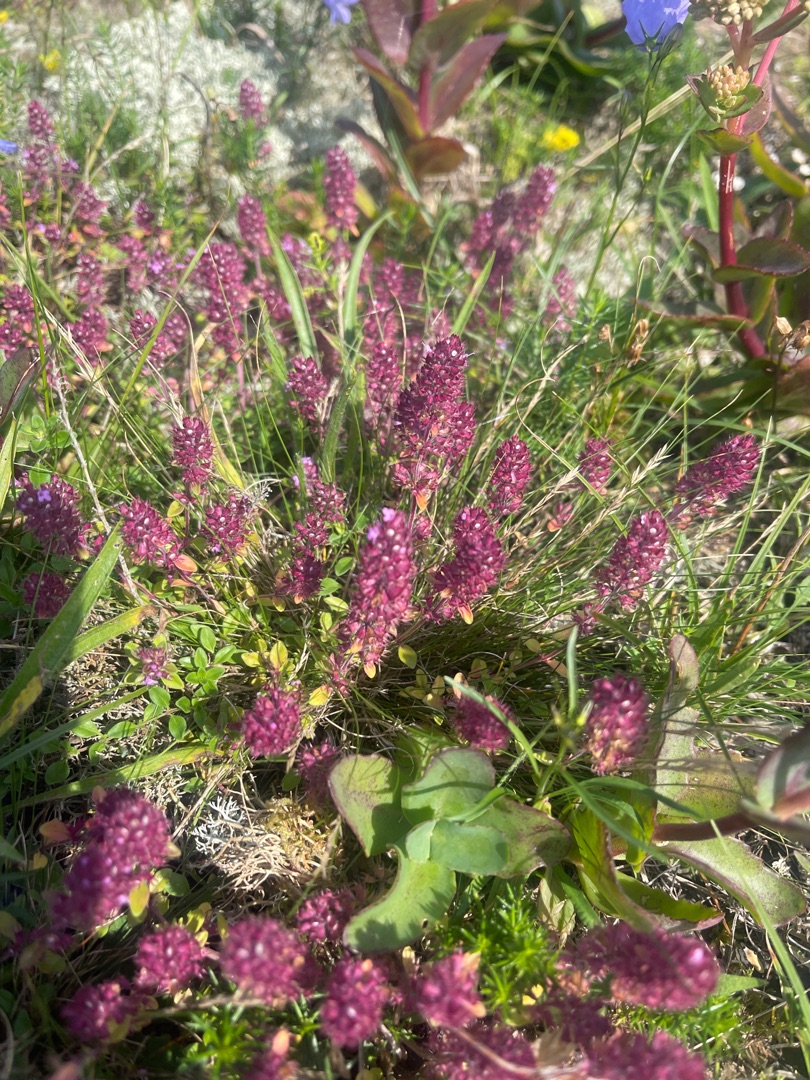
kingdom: Plantae
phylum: Tracheophyta
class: Magnoliopsida
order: Lamiales
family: Lamiaceae
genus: Thymus
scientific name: Thymus pulegioides
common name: Bredbladet timian
